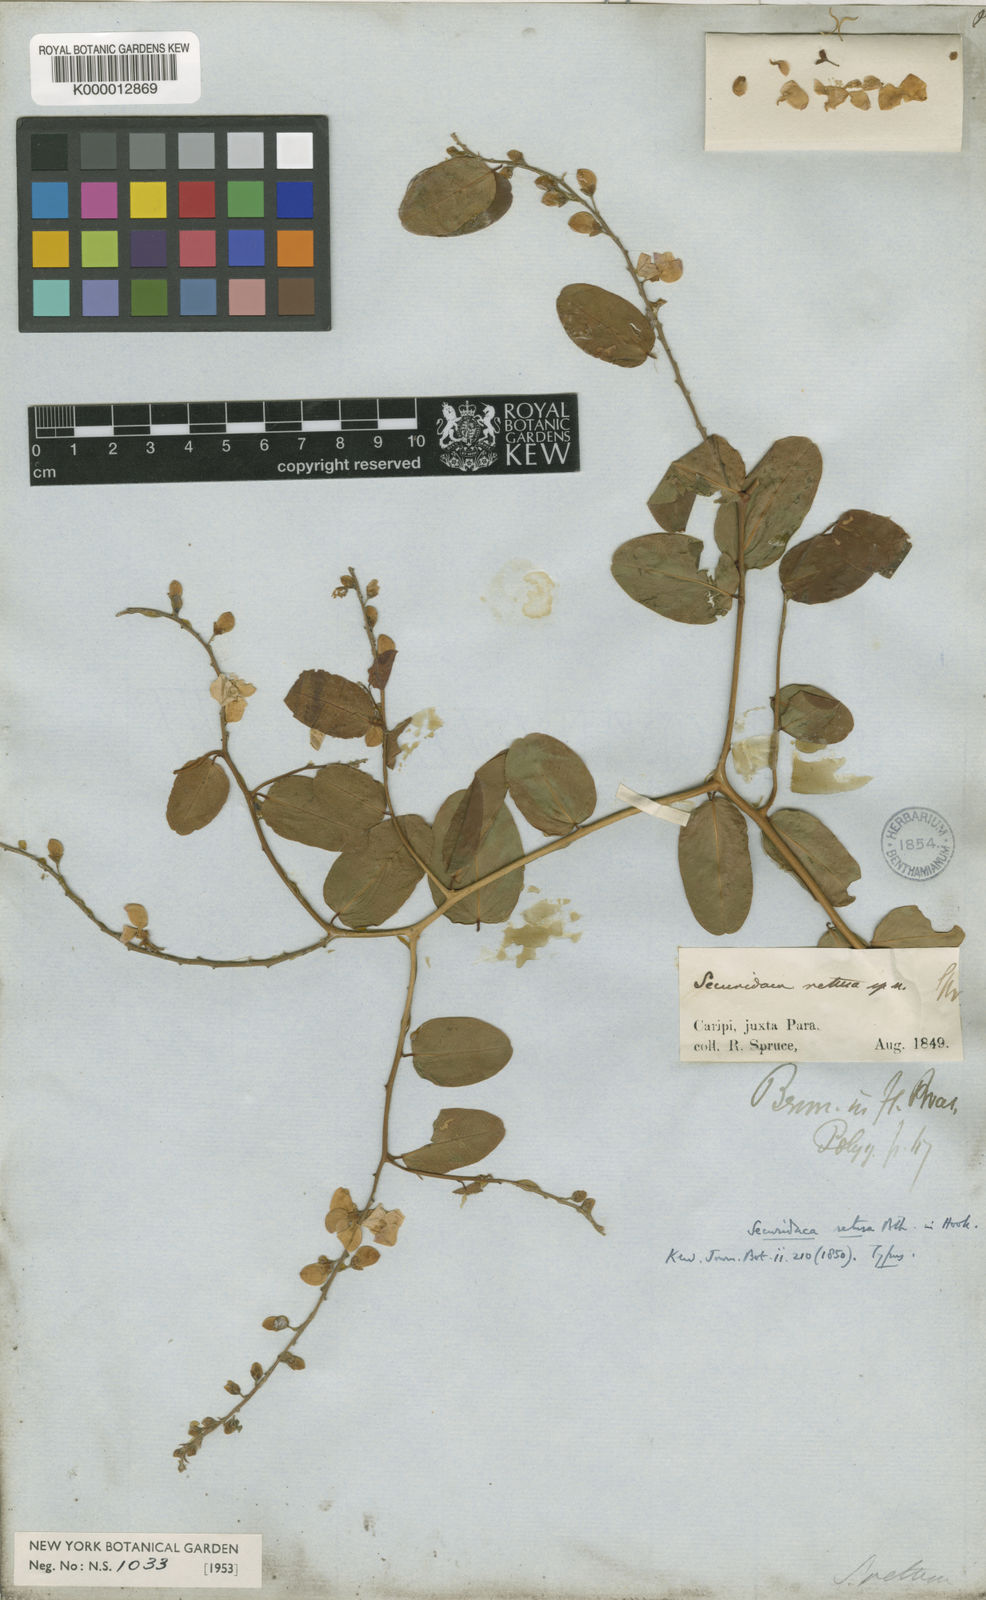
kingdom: Plantae
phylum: Tracheophyta
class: Magnoliopsida
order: Fabales
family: Polygalaceae
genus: Securidaca
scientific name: Securidaca retusa
